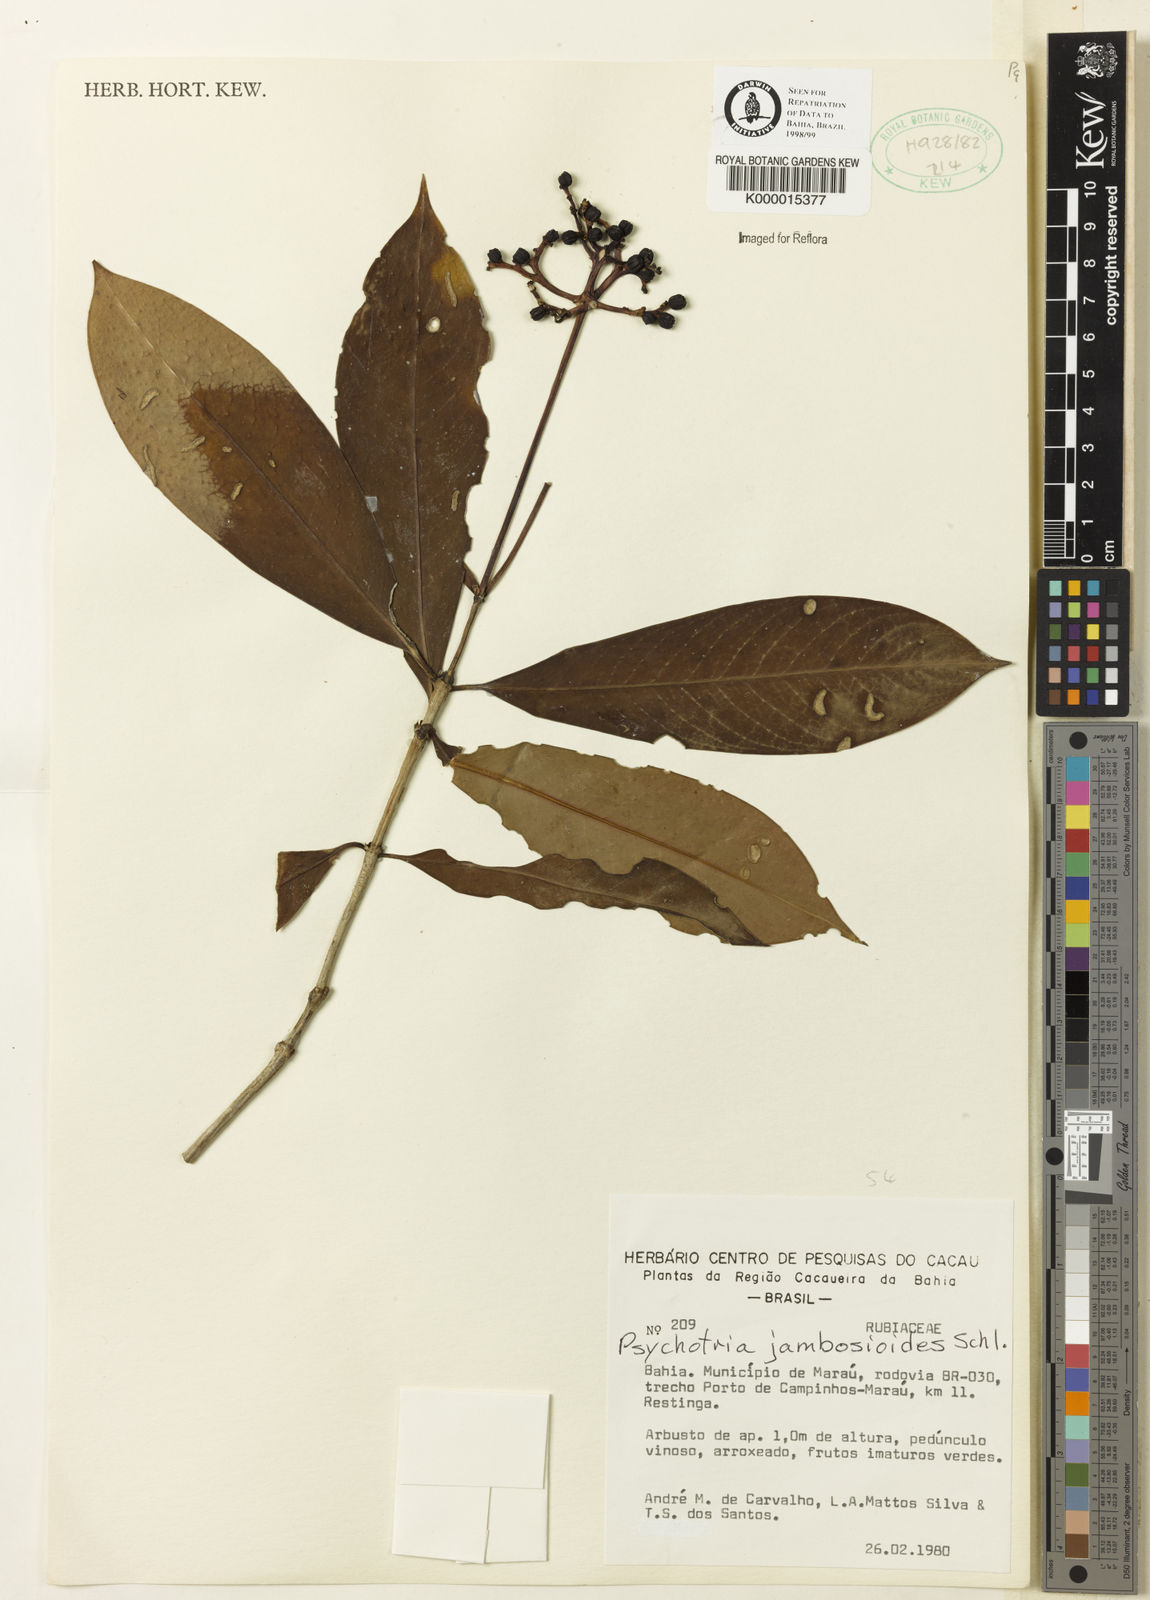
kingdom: Plantae
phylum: Tracheophyta
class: Magnoliopsida
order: Gentianales
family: Rubiaceae
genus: Palicourea
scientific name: Palicourea jambosioides
